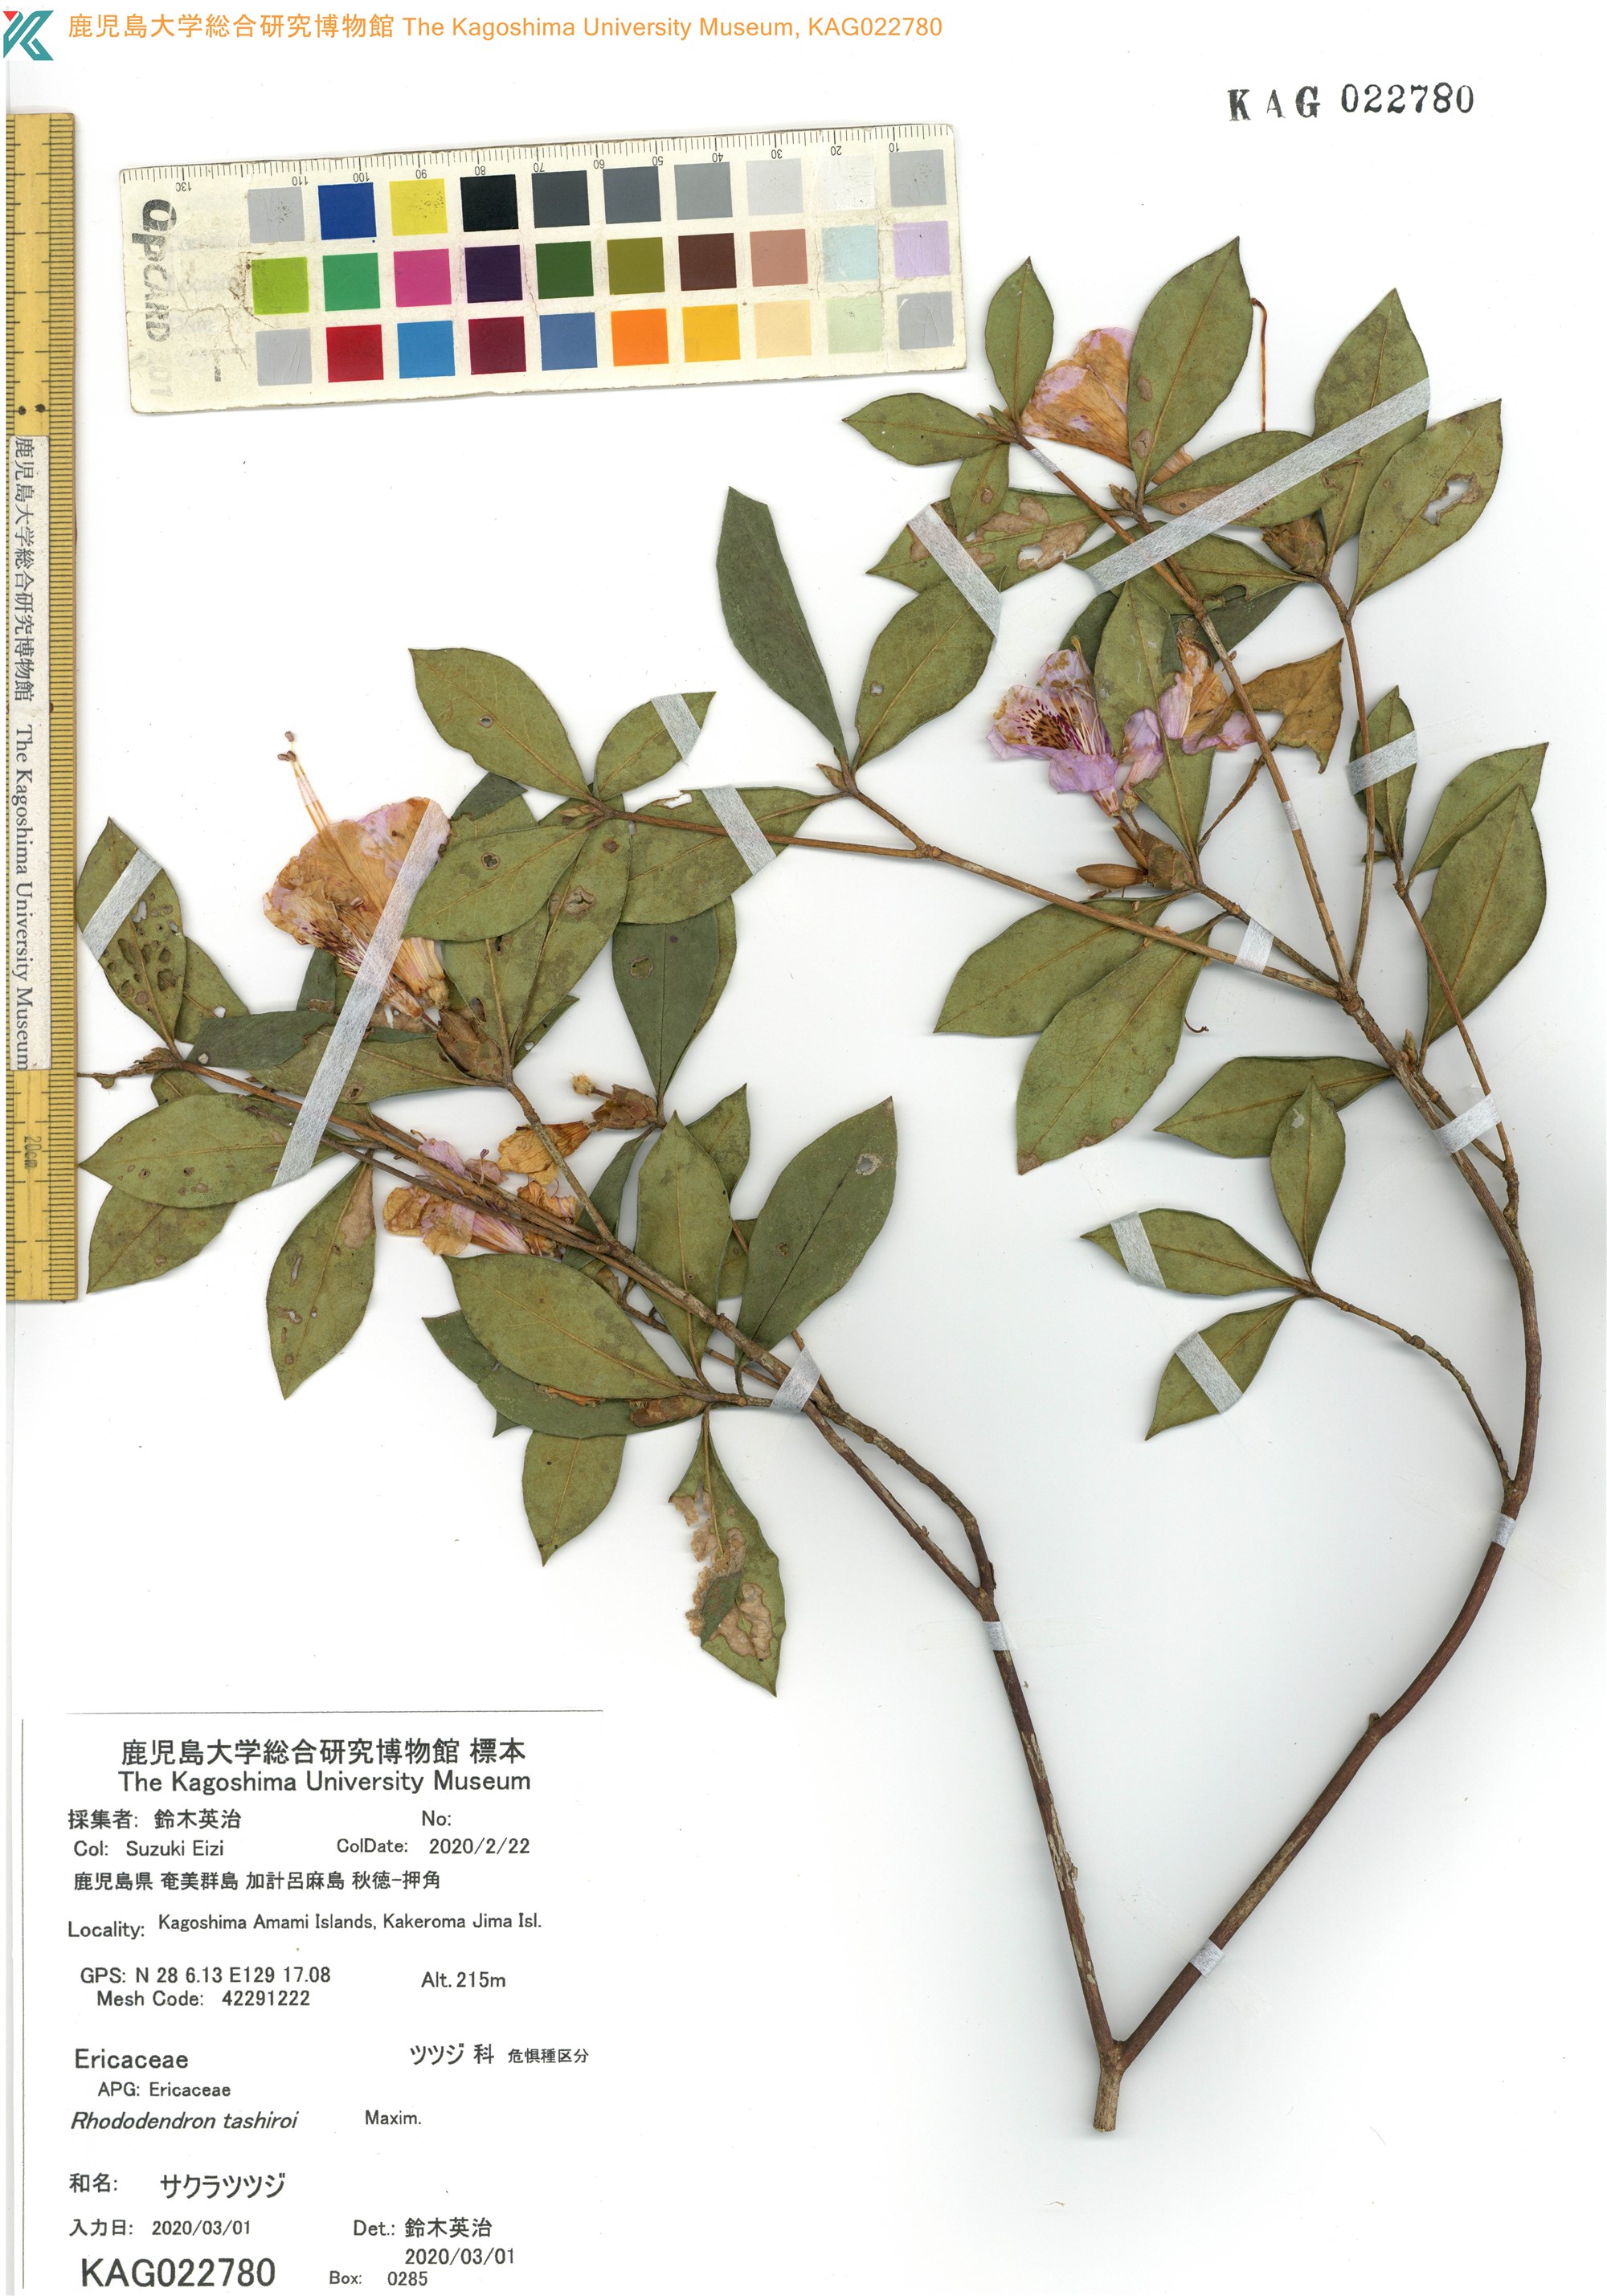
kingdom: Plantae
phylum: Tracheophyta
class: Magnoliopsida
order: Ericales
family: Ericaceae
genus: Rhododendron
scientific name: Rhododendron tashiroi
